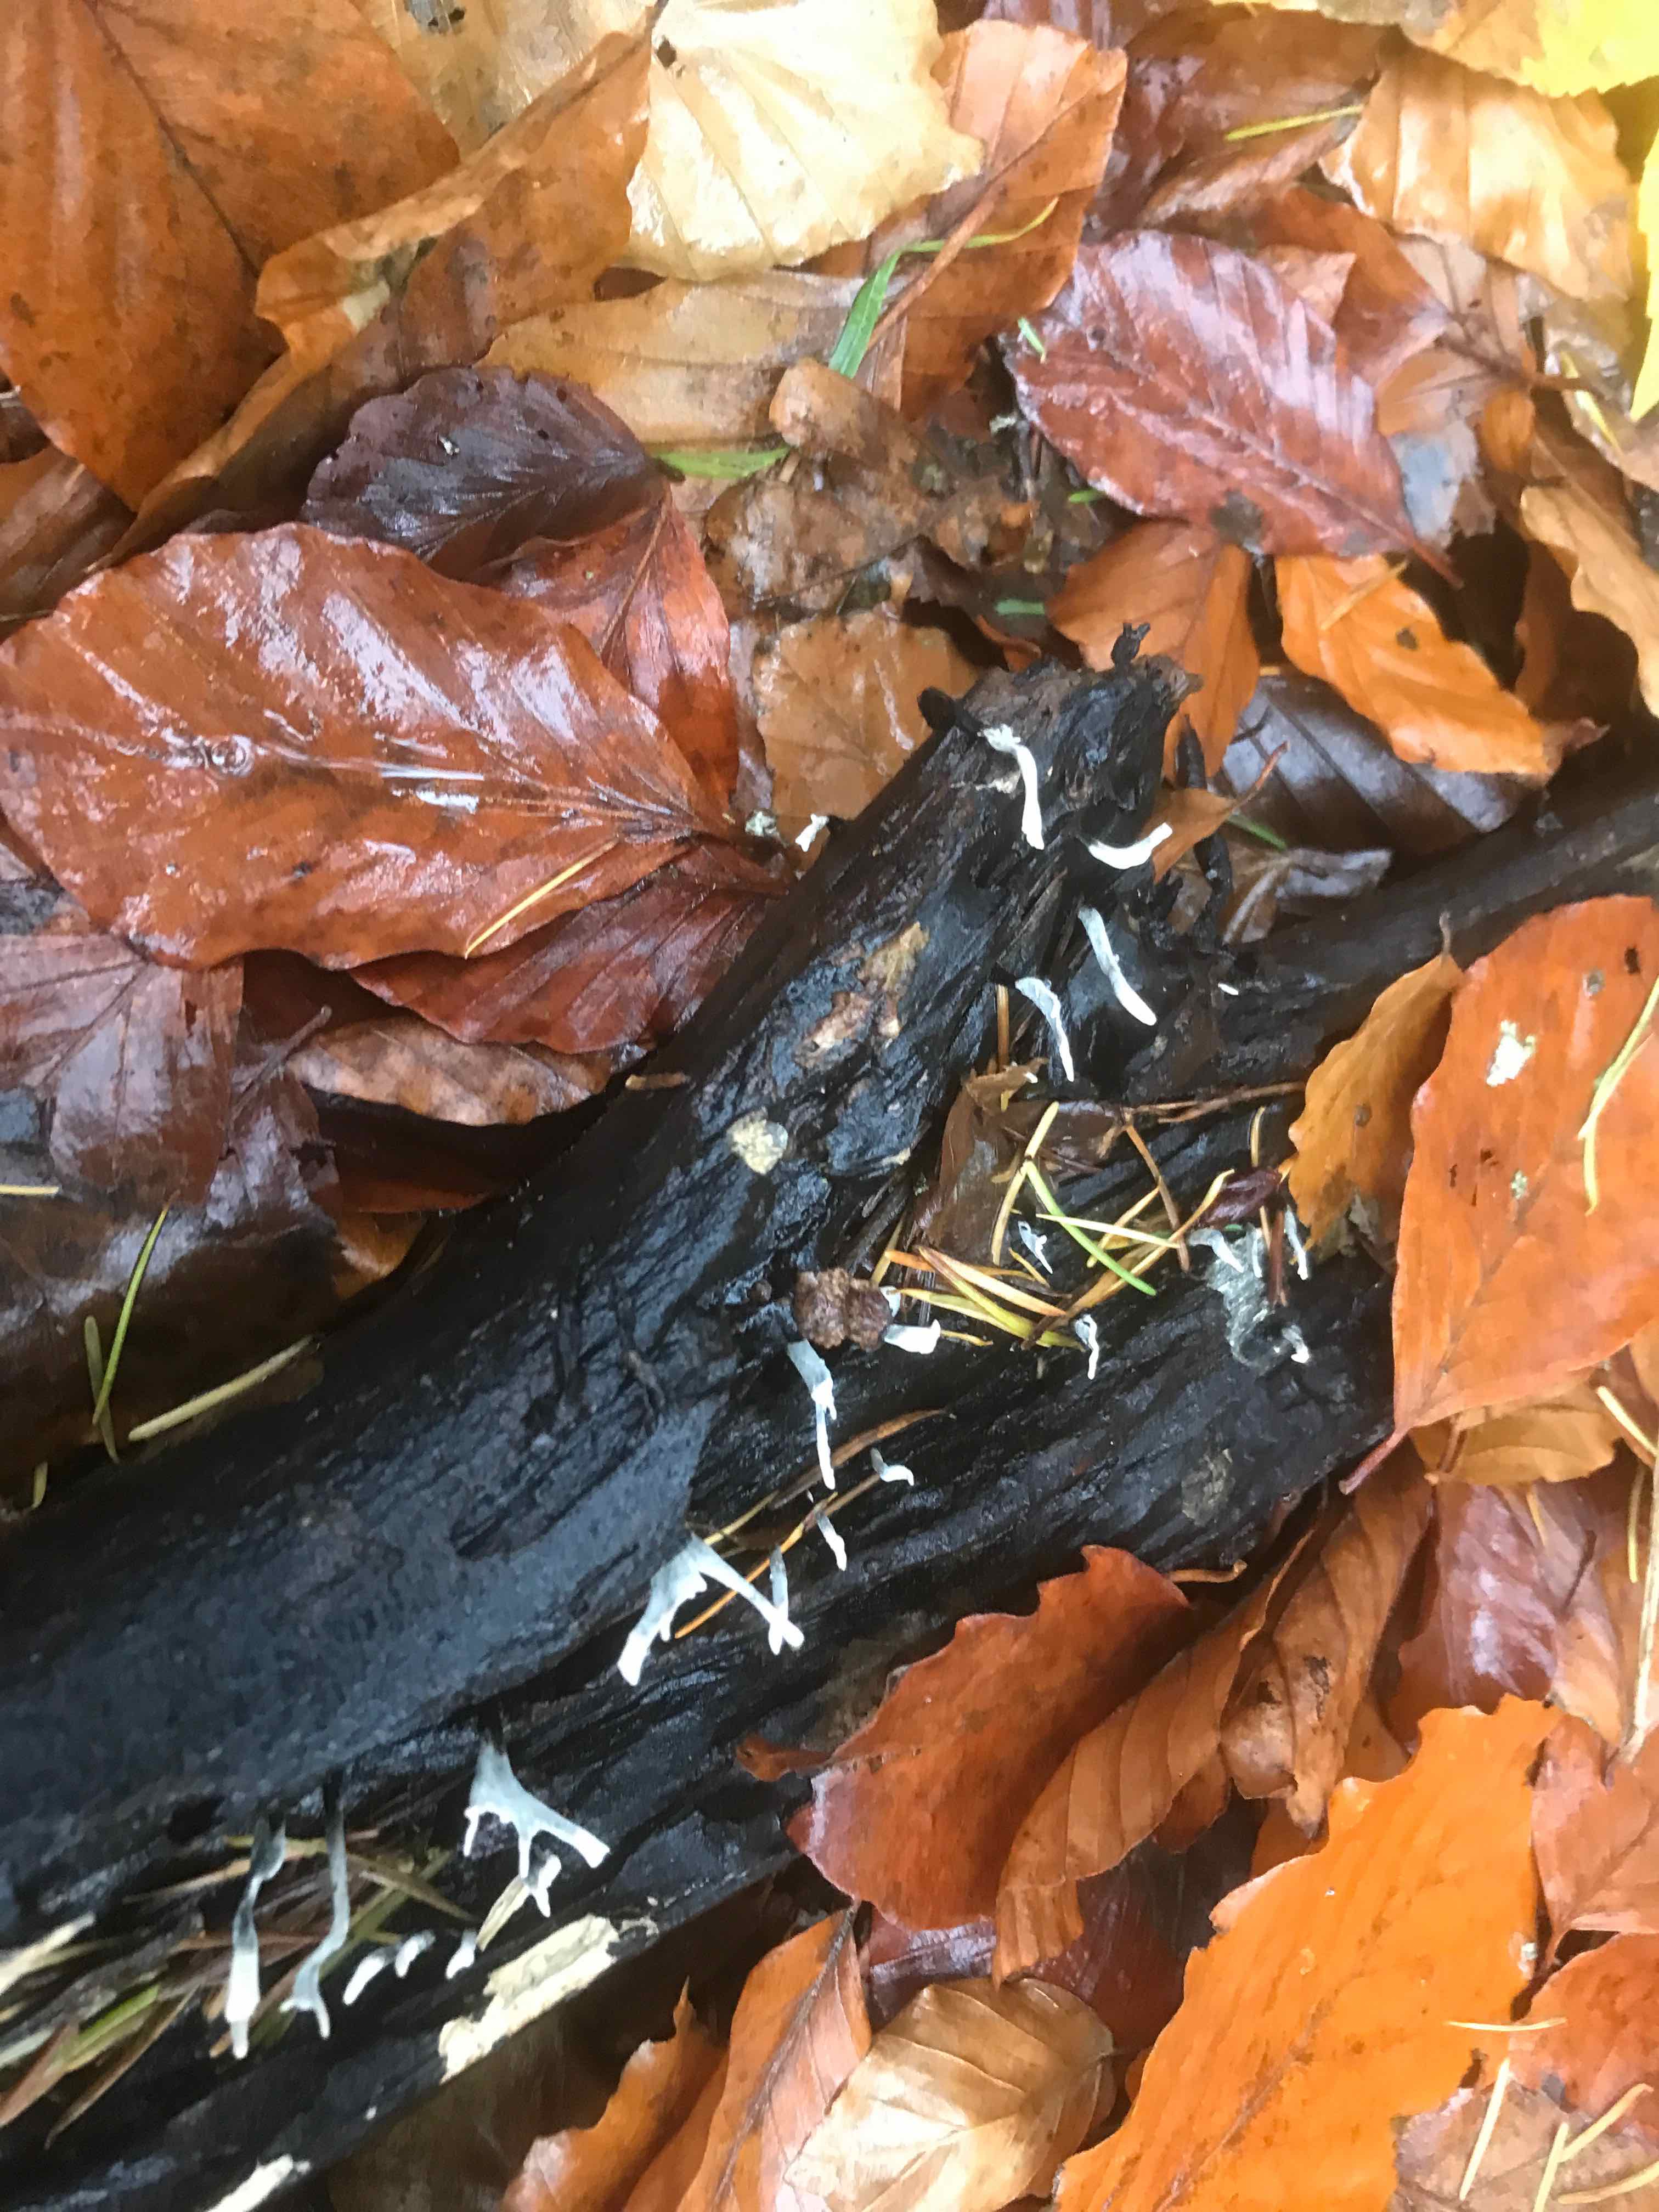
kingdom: Fungi
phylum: Ascomycota
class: Sordariomycetes
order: Xylariales
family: Xylariaceae
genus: Xylaria
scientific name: Xylaria hypoxylon
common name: grenet stødsvamp
